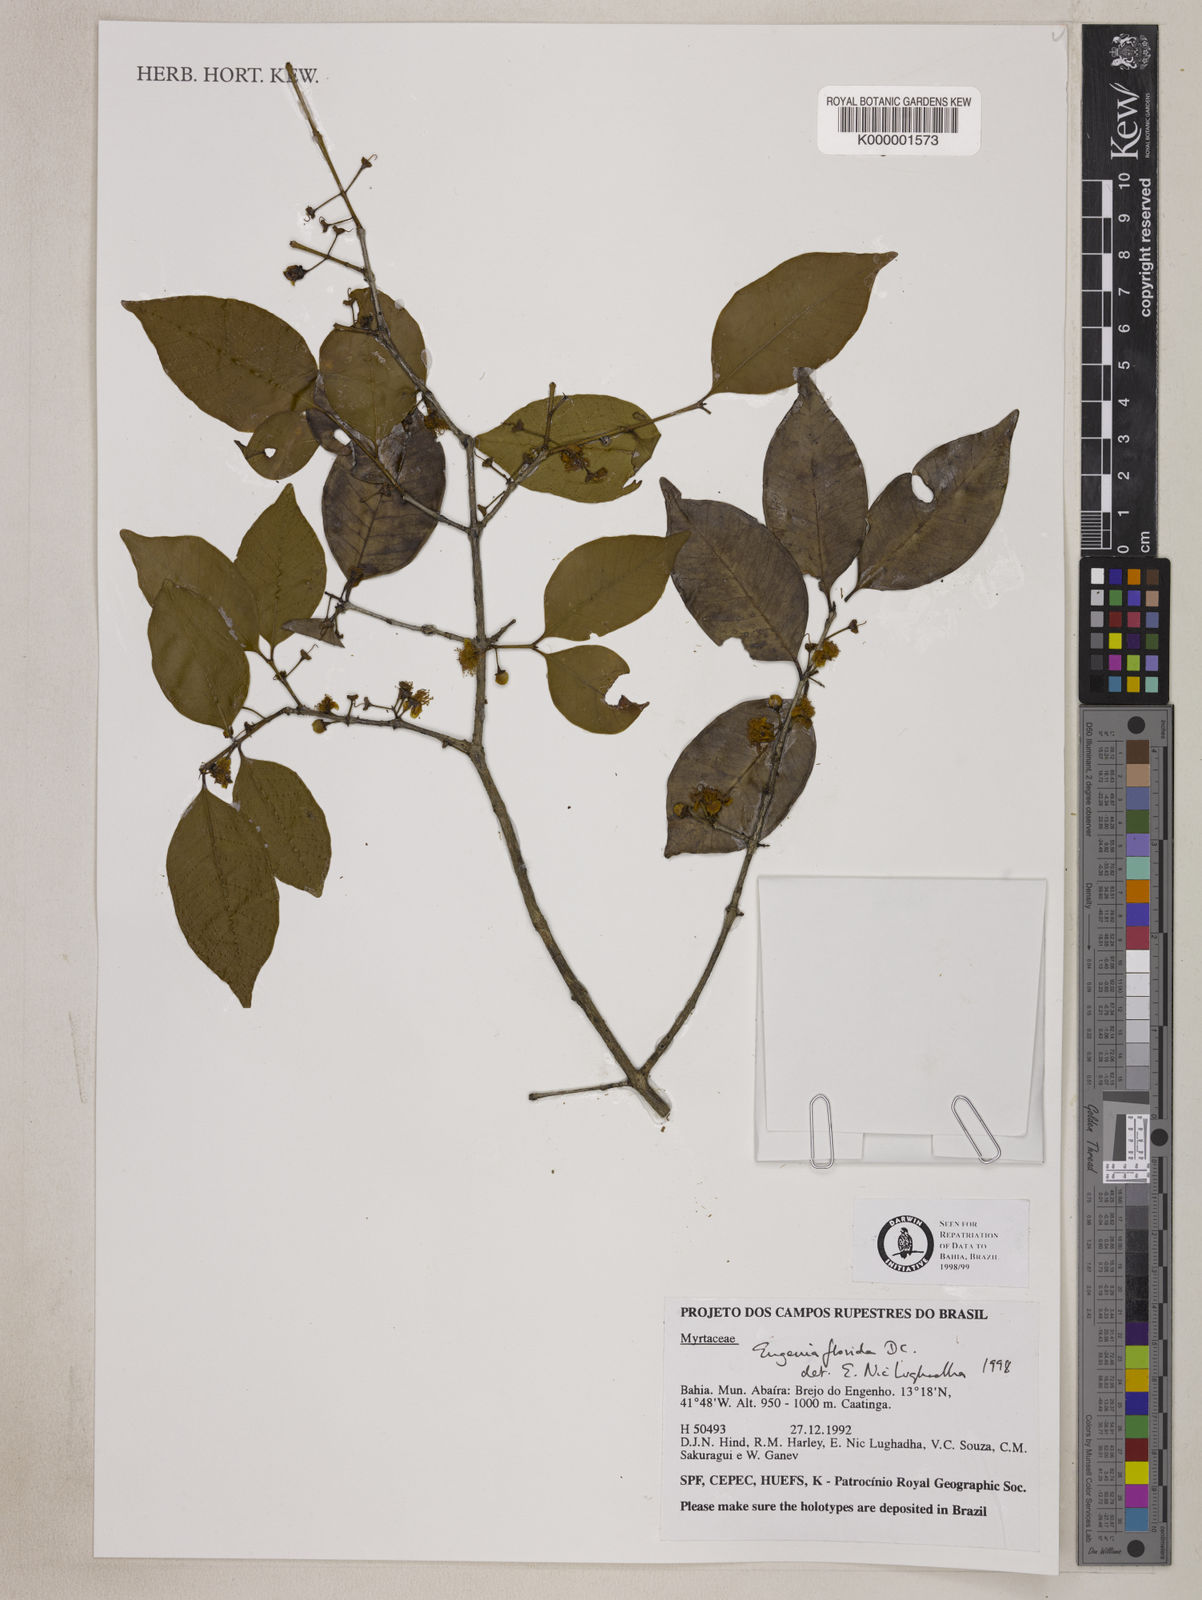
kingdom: Plantae
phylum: Tracheophyta
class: Magnoliopsida
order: Myrtales
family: Myrtaceae
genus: Eugenia
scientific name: Eugenia florida
